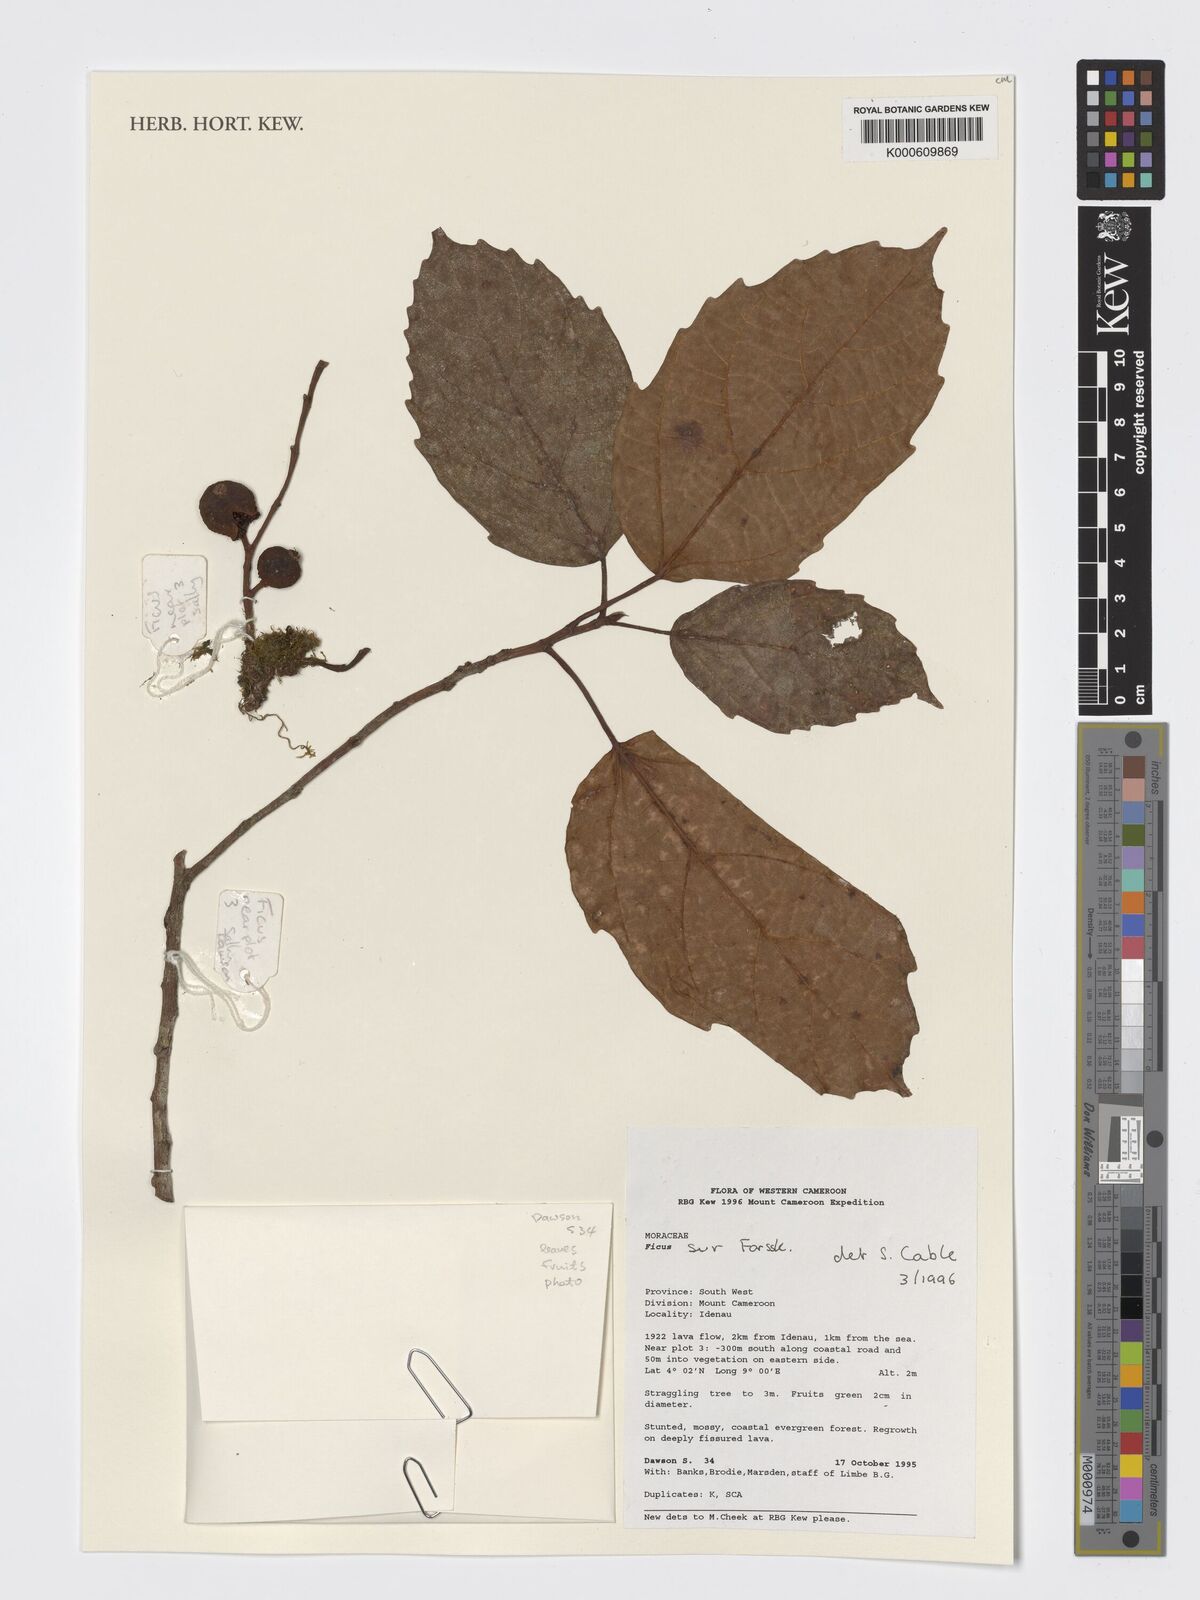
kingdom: Plantae
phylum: Tracheophyta
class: Magnoliopsida
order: Rosales
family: Moraceae
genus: Ficus
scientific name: Ficus sur
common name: Cape fig
